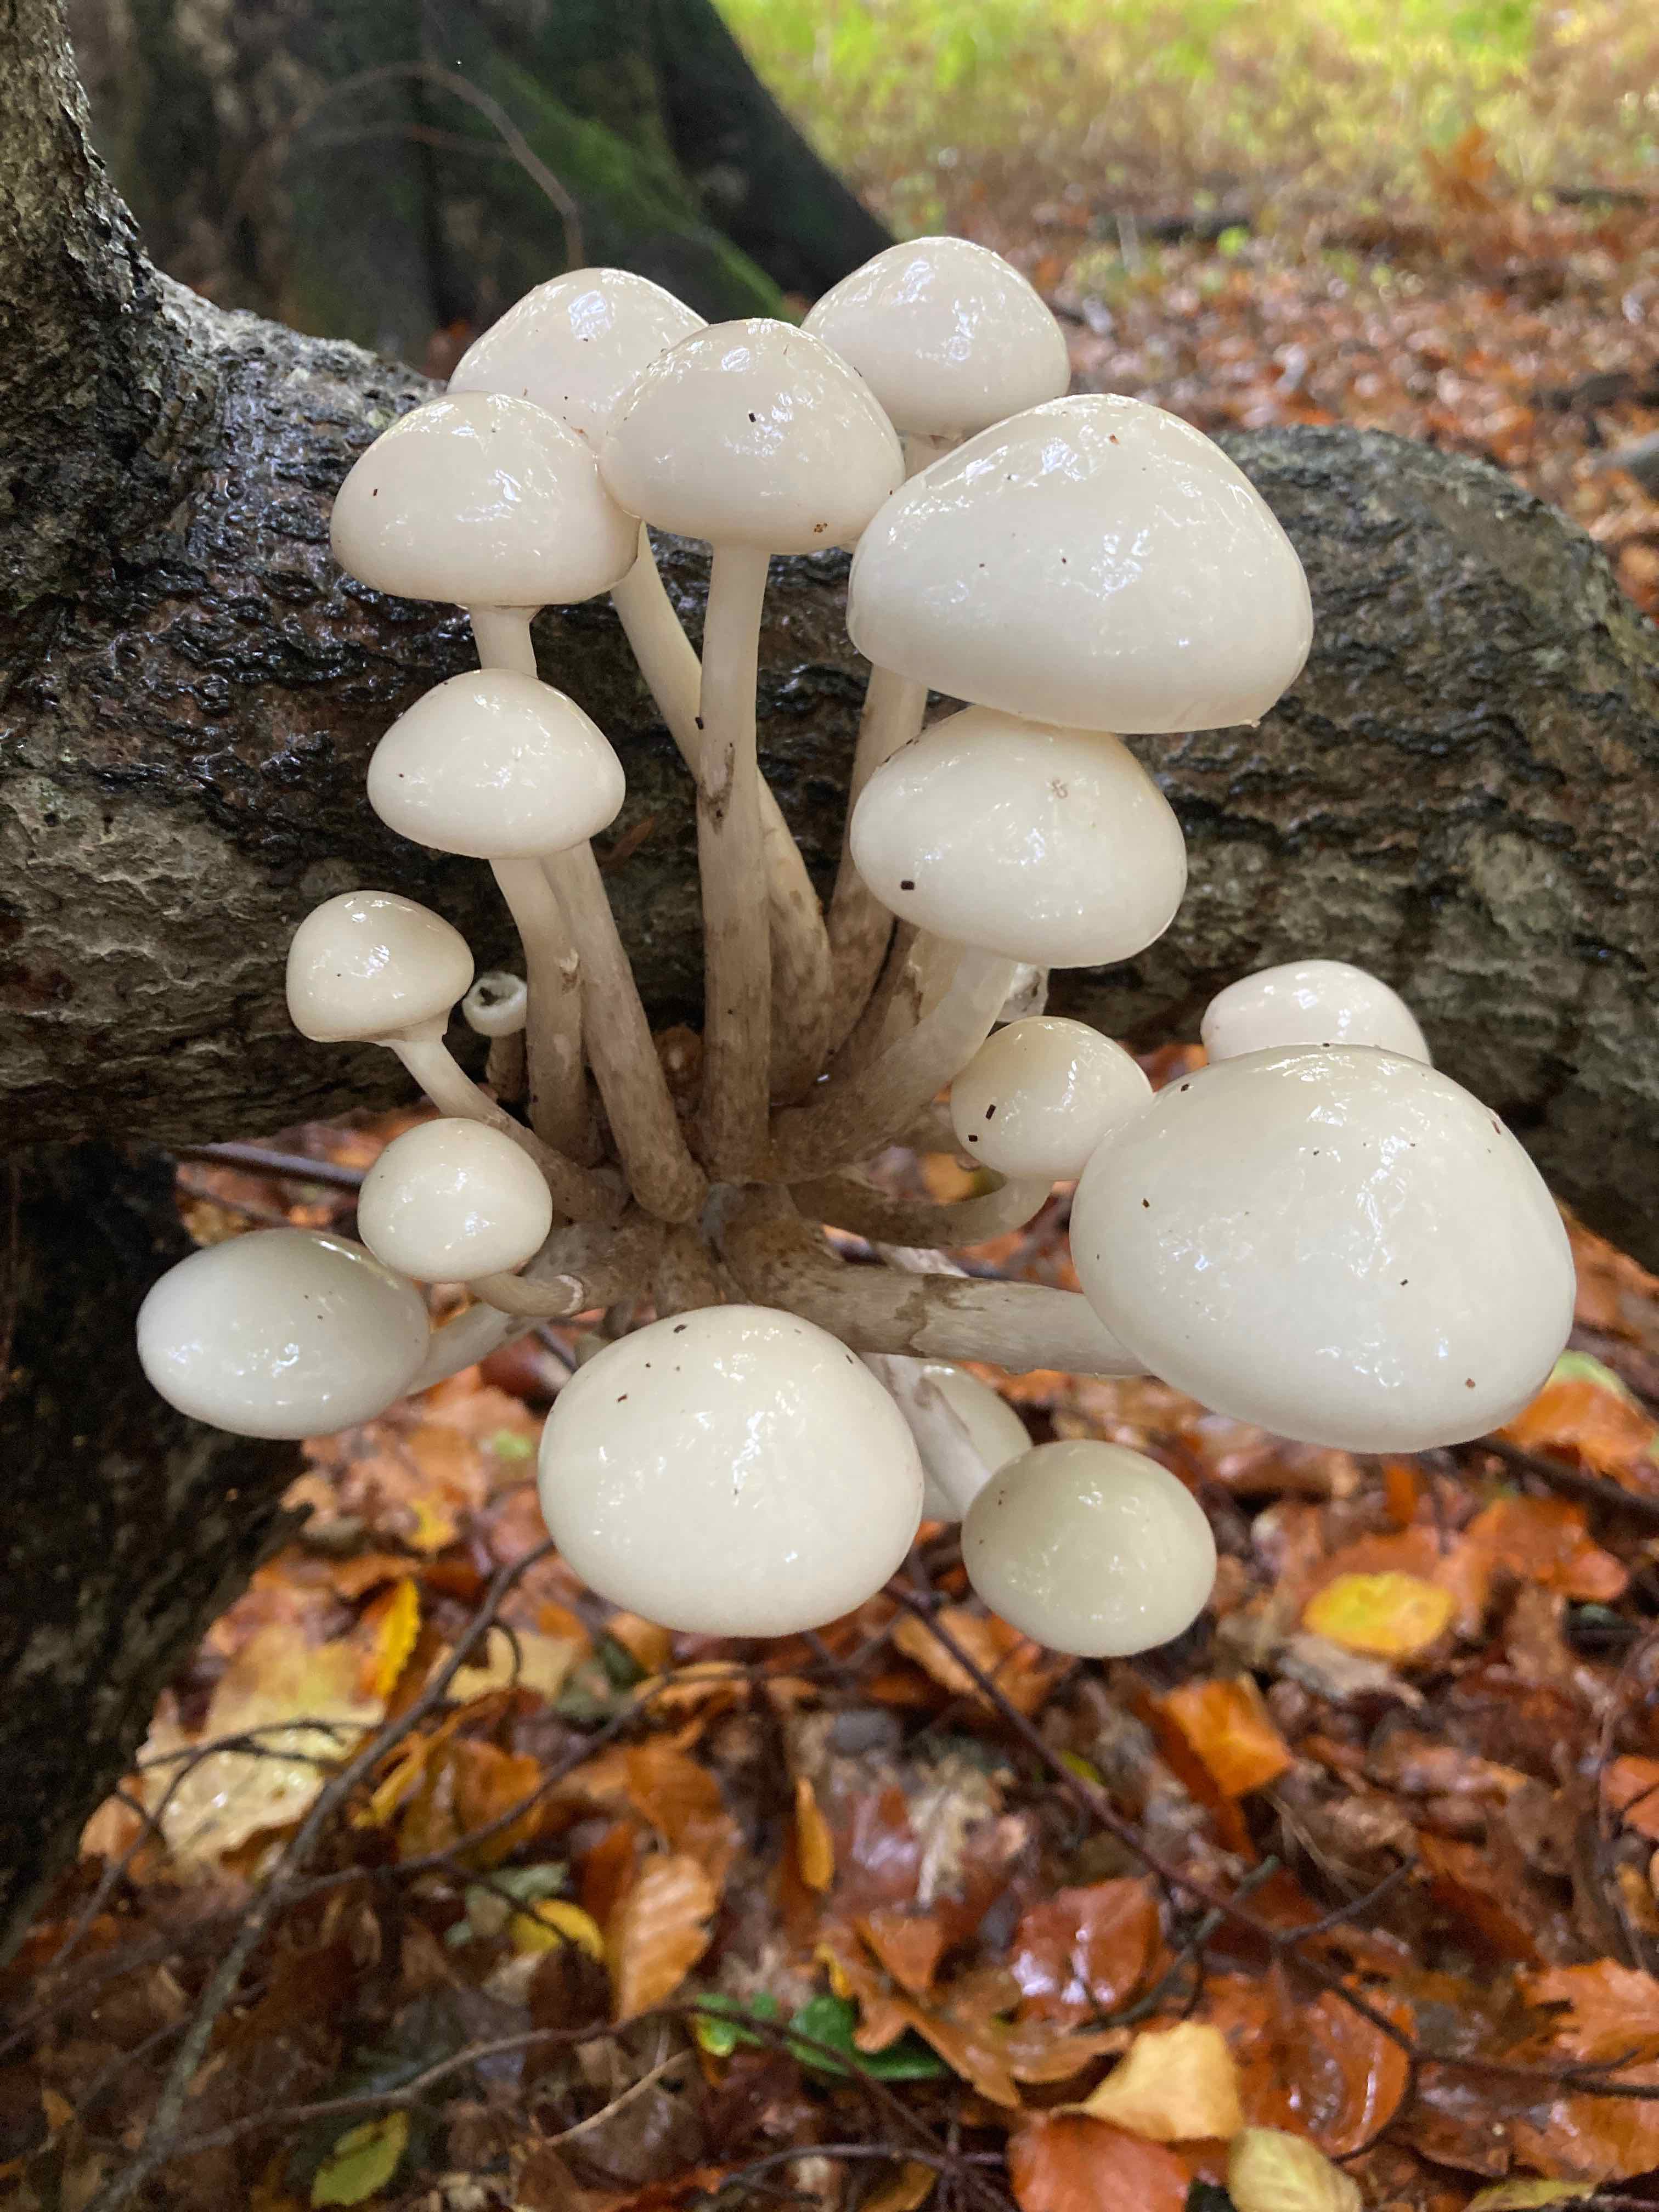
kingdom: Fungi
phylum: Basidiomycota
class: Agaricomycetes
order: Agaricales
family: Physalacriaceae
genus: Mucidula
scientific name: Mucidula mucida
